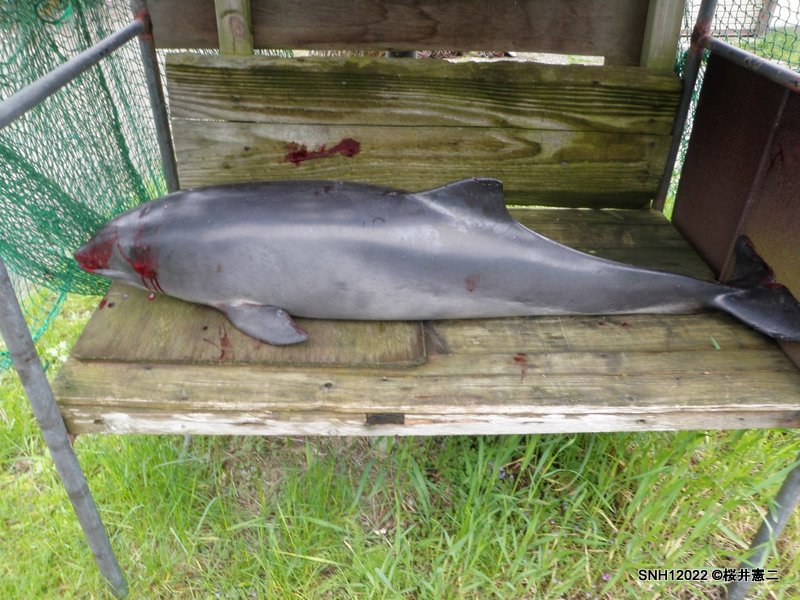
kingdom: Animalia
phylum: Chordata
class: Mammalia
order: Cetacea
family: Phocoenidae
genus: Phocoena
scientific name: Phocoena phocoena
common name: Harbour porpoise
